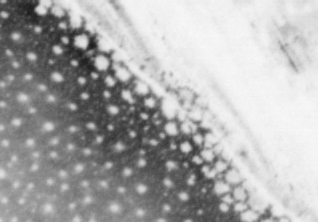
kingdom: Animalia
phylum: Chordata
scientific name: Chordata
